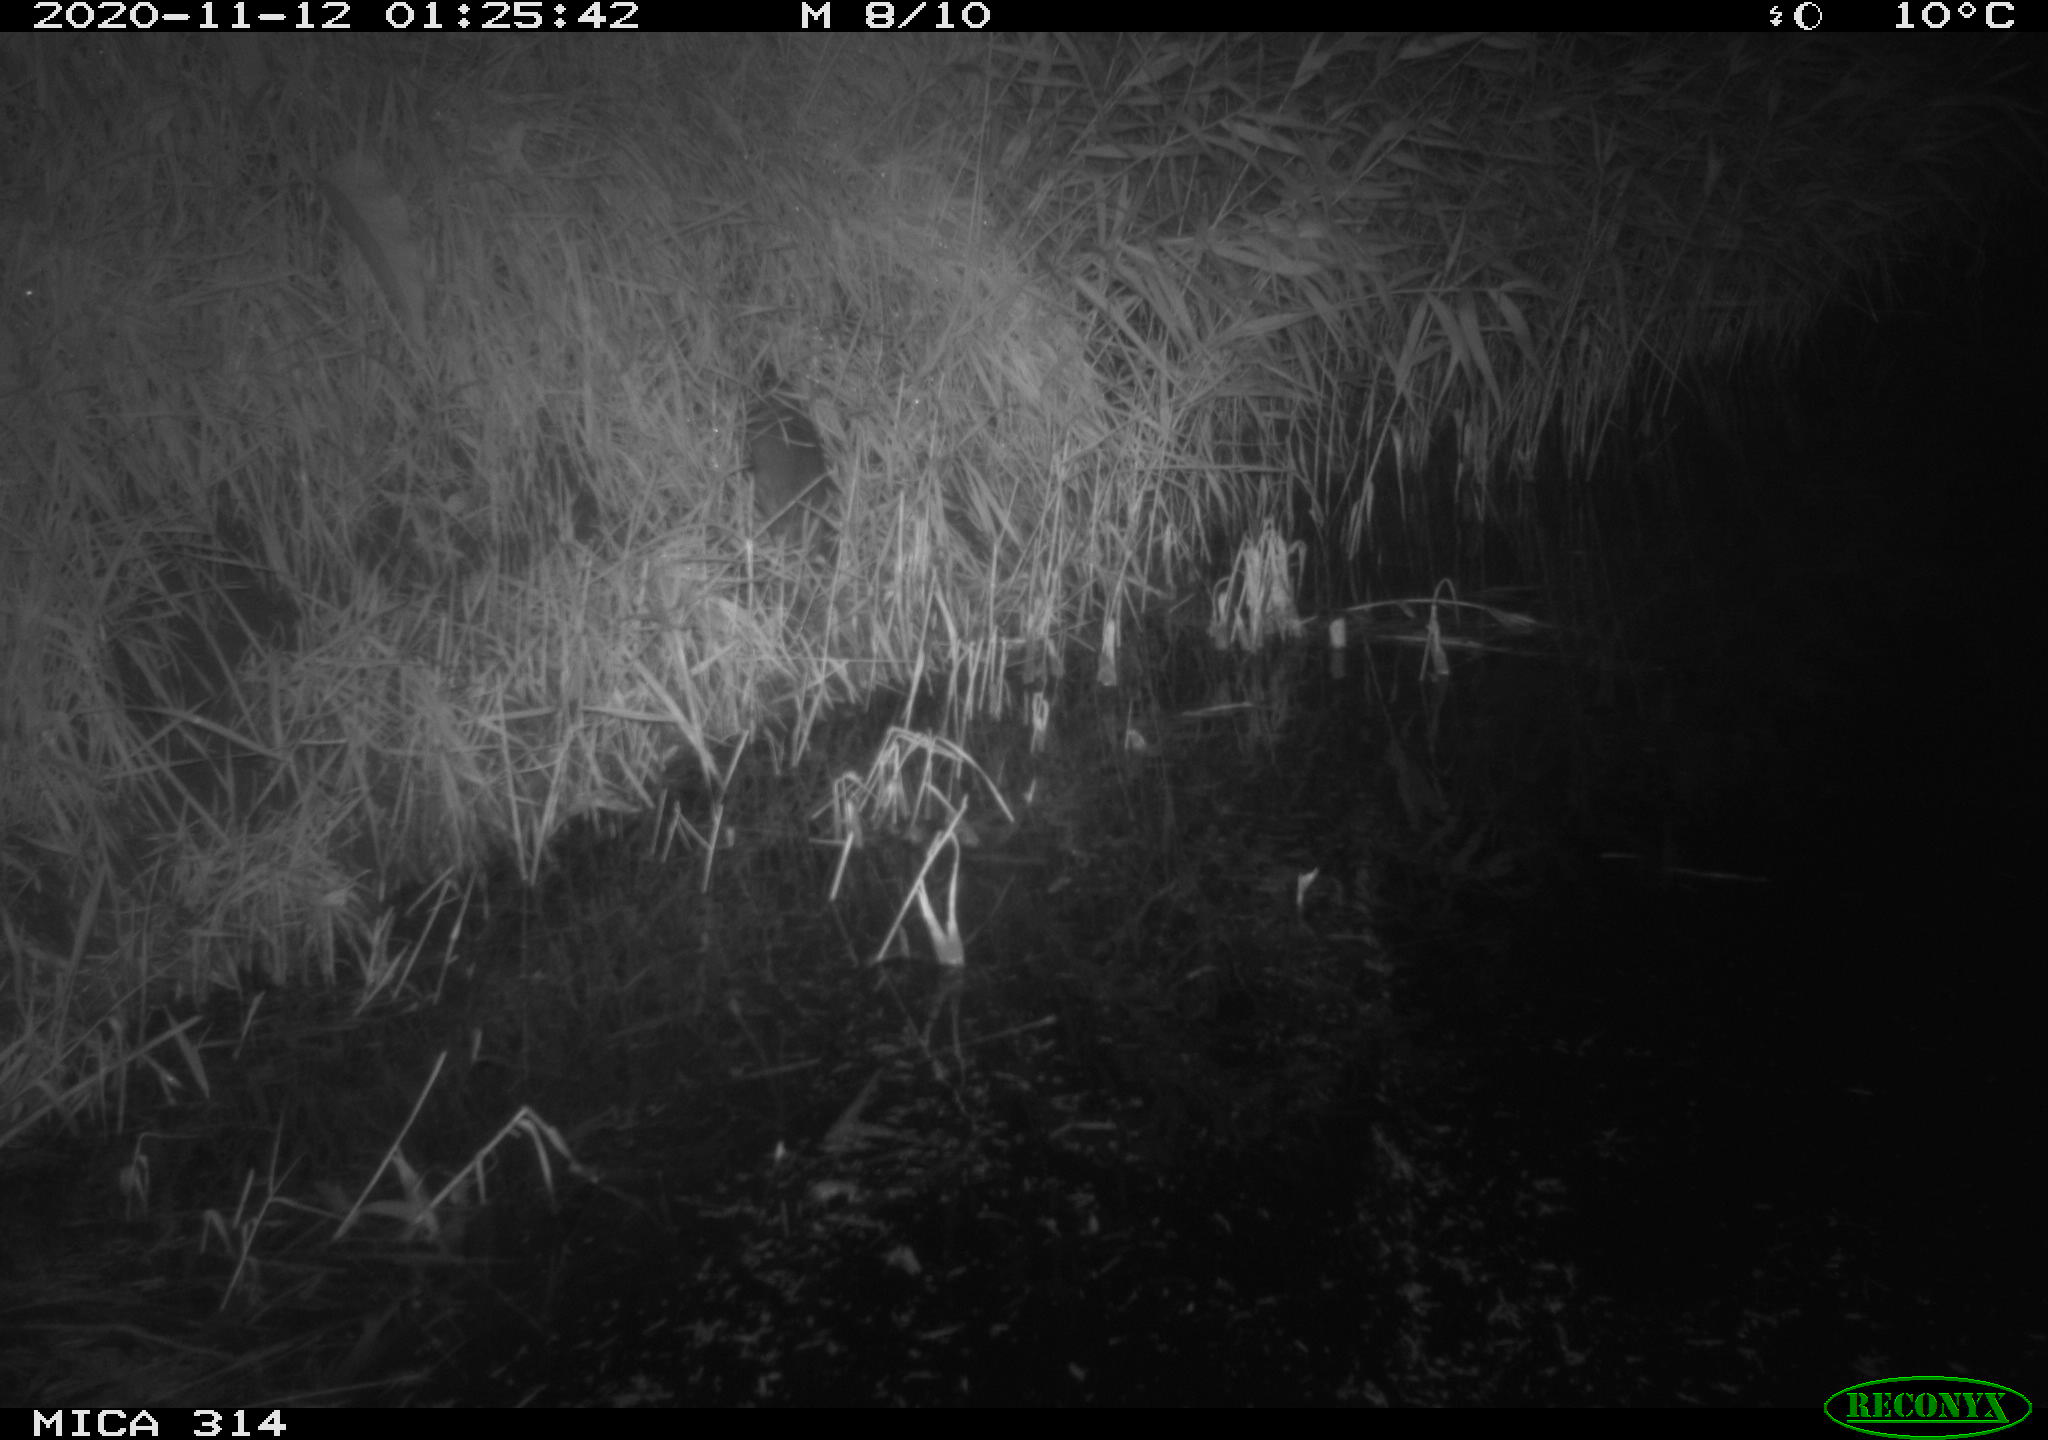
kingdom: Animalia
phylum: Chordata
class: Mammalia
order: Rodentia
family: Muridae
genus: Rattus
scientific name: Rattus norvegicus
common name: Brown rat
